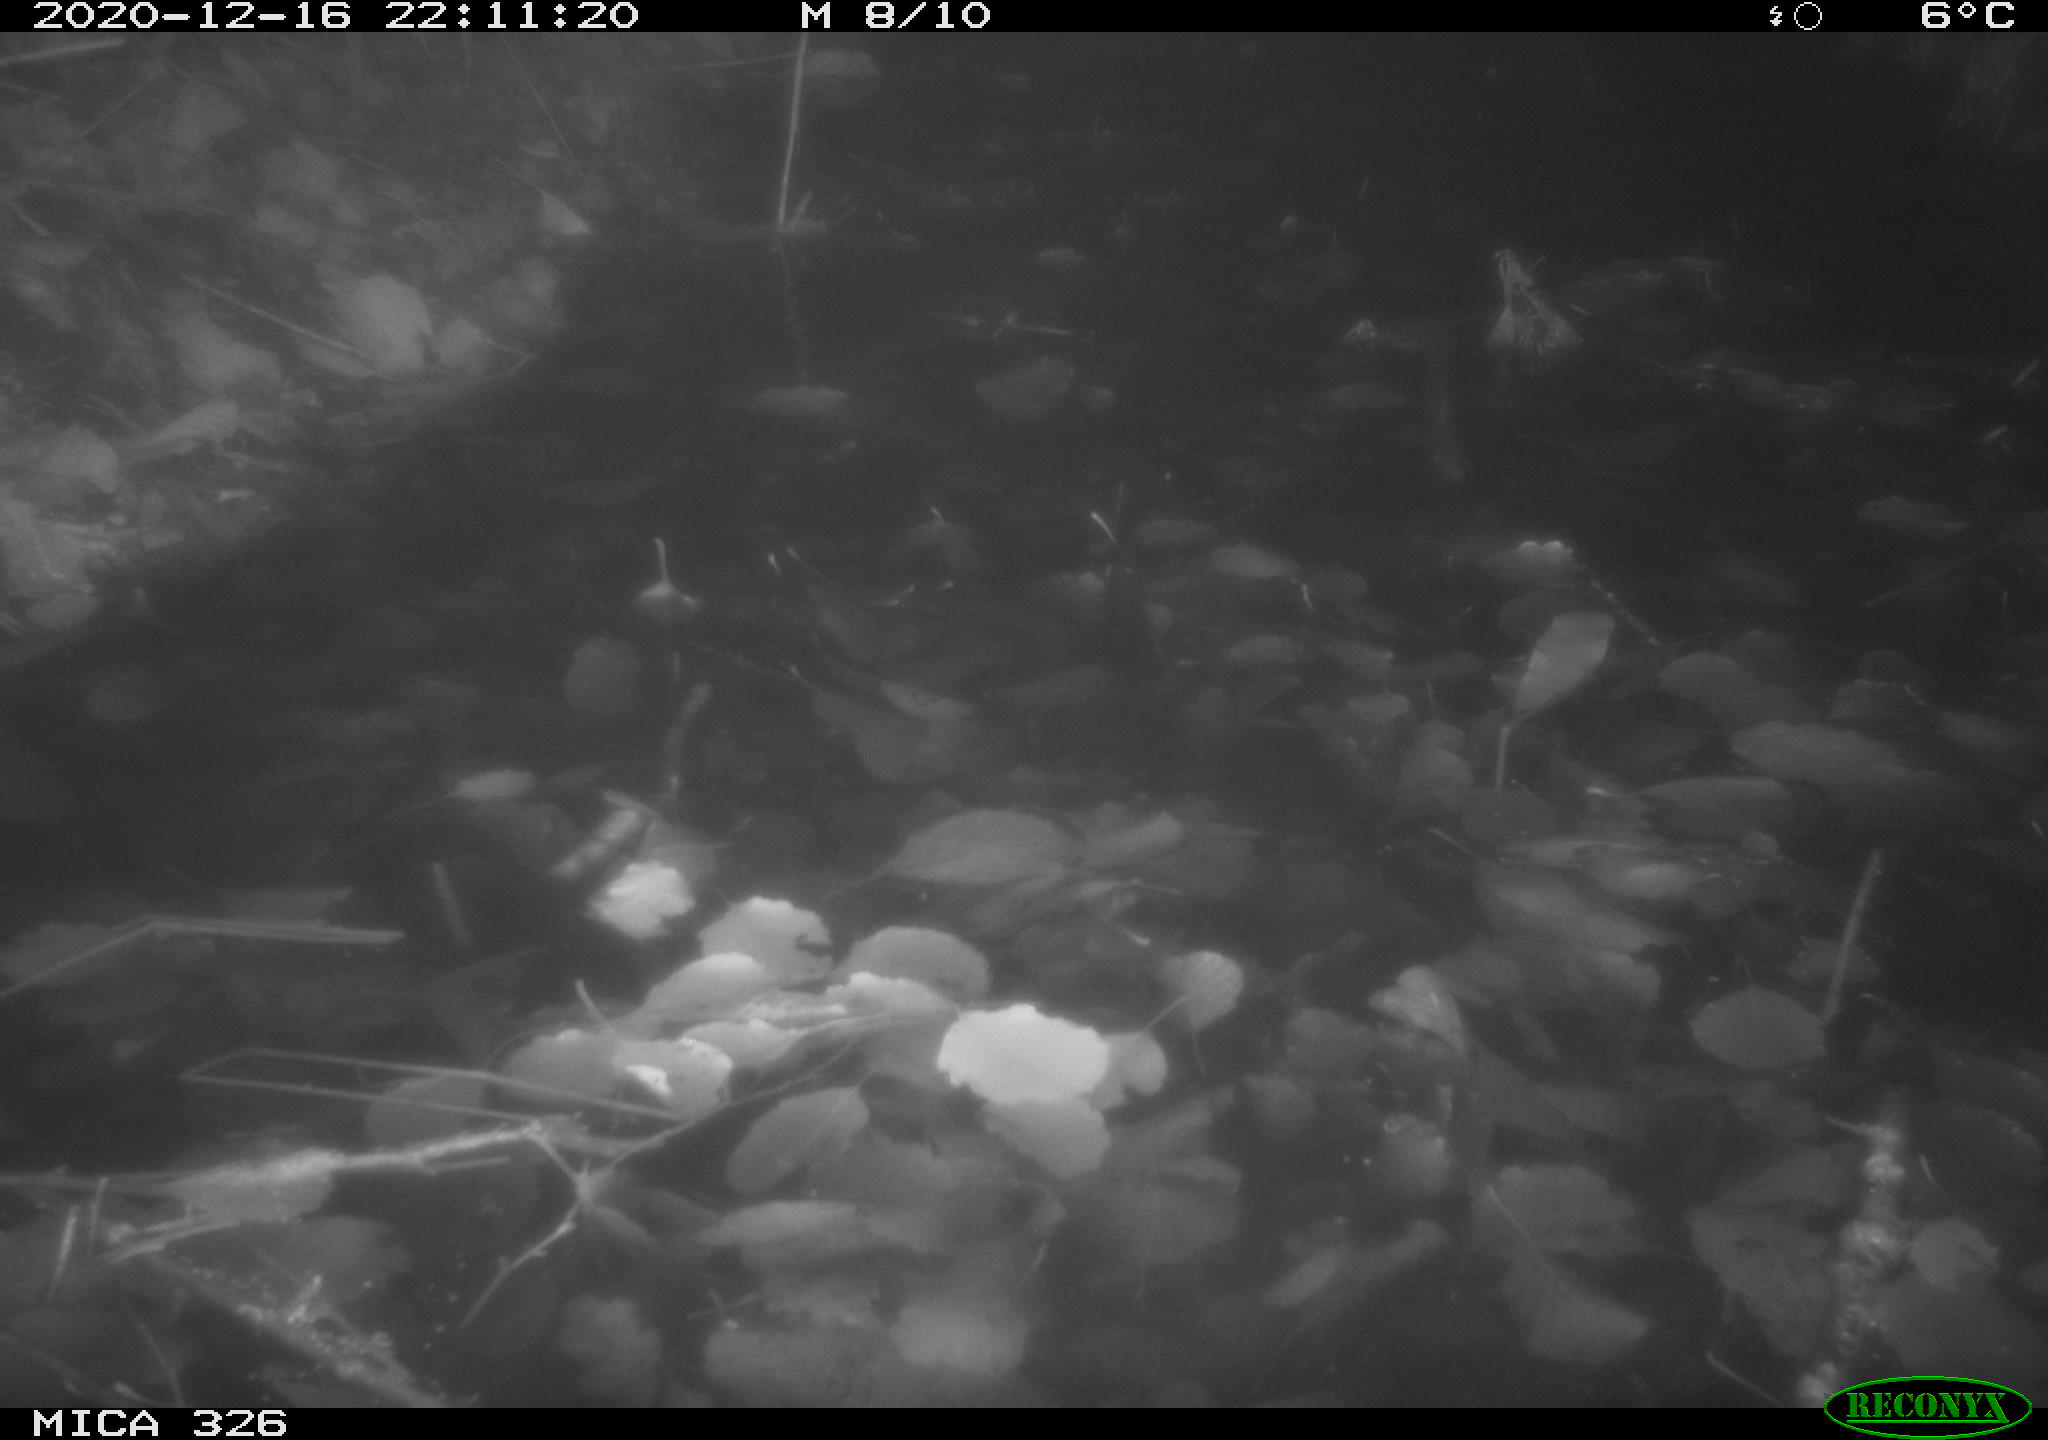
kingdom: Animalia
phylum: Chordata
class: Mammalia
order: Carnivora
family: Mustelidae
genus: Lutra
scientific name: Lutra lutra
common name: European otter
